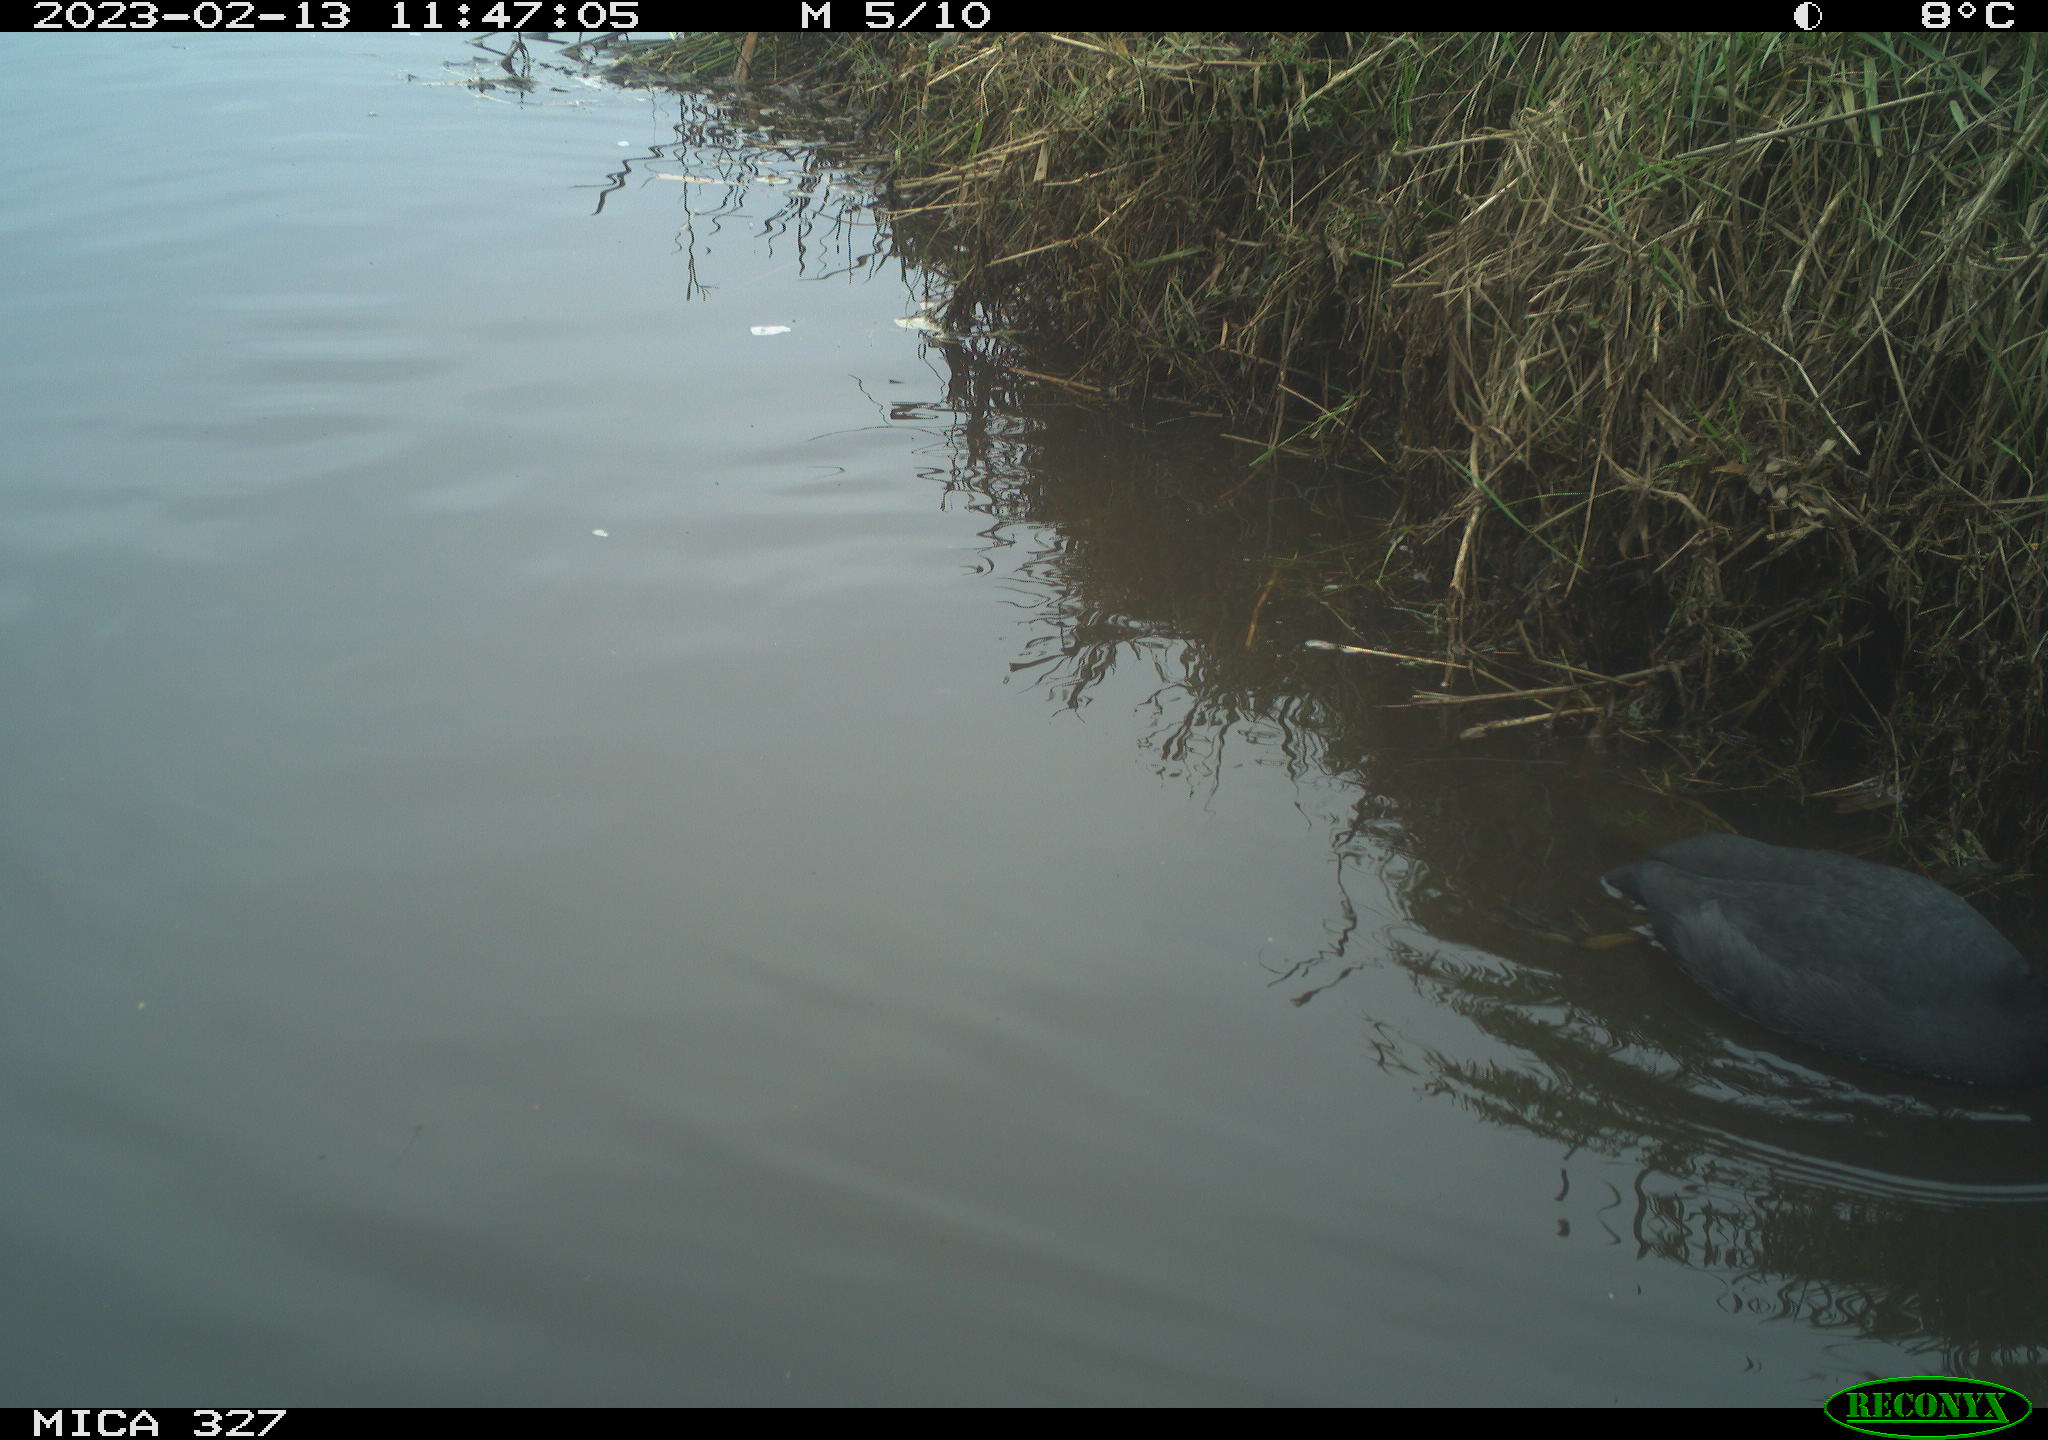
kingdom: Animalia
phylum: Chordata
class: Aves
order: Gruiformes
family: Rallidae
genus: Fulica
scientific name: Fulica atra
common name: Eurasian coot
